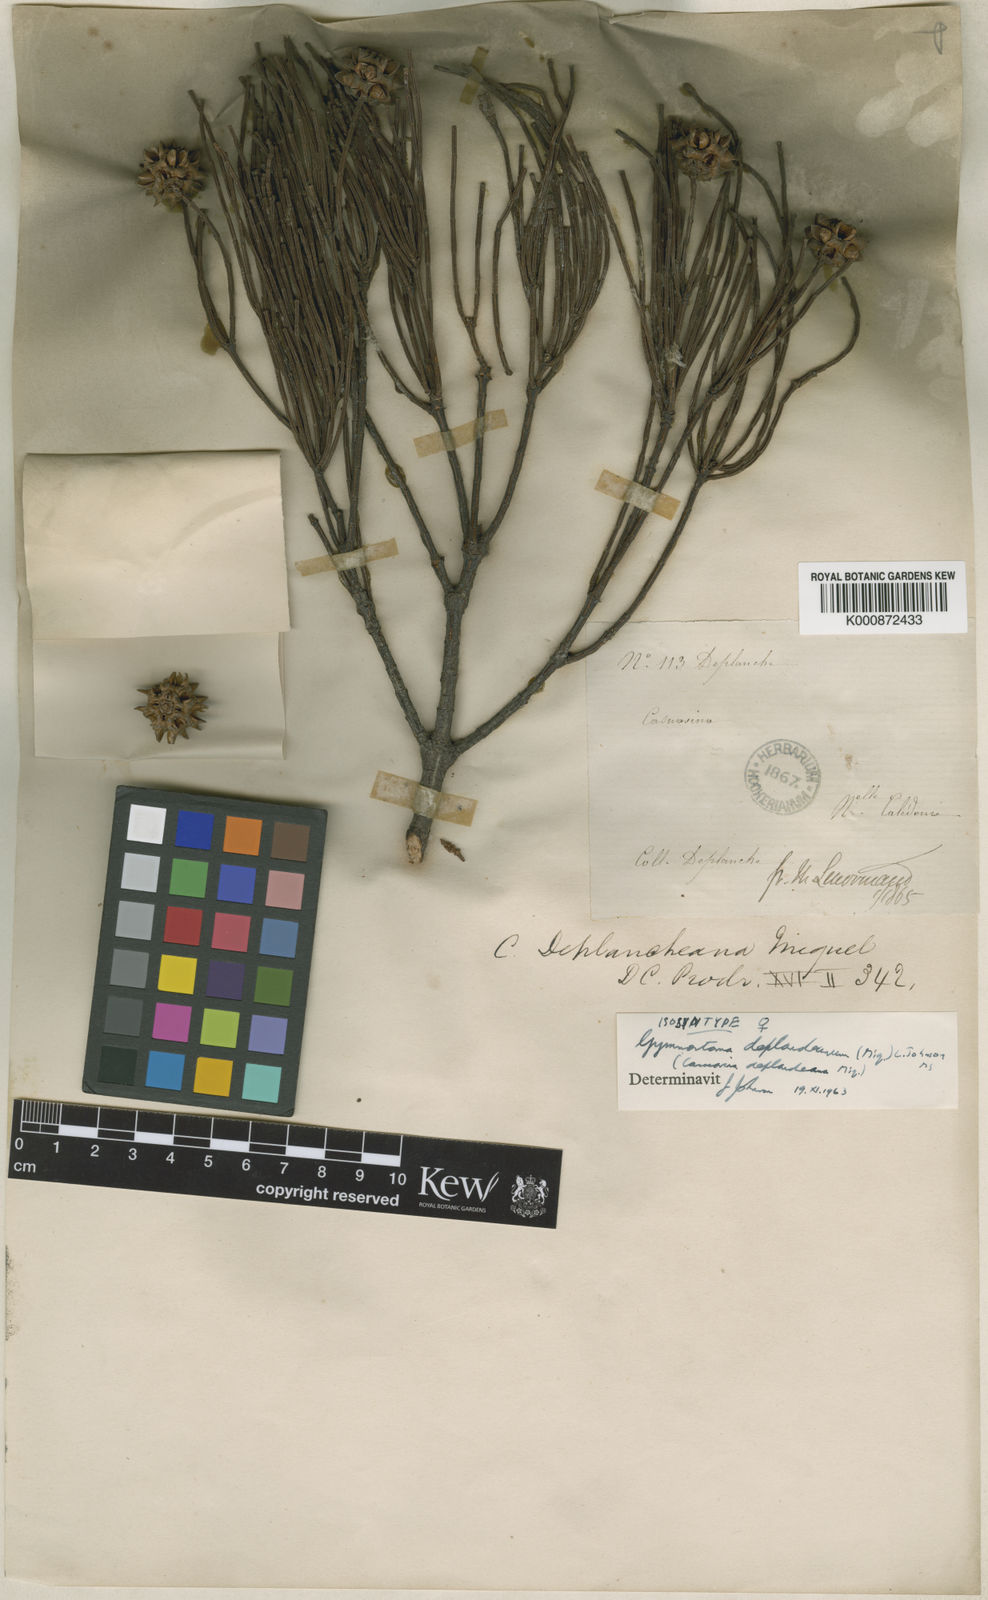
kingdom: Plantae
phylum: Tracheophyta
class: Magnoliopsida
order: Fagales
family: Casuarinaceae
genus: Gymnostoma
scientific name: Gymnostoma deplancheanum
